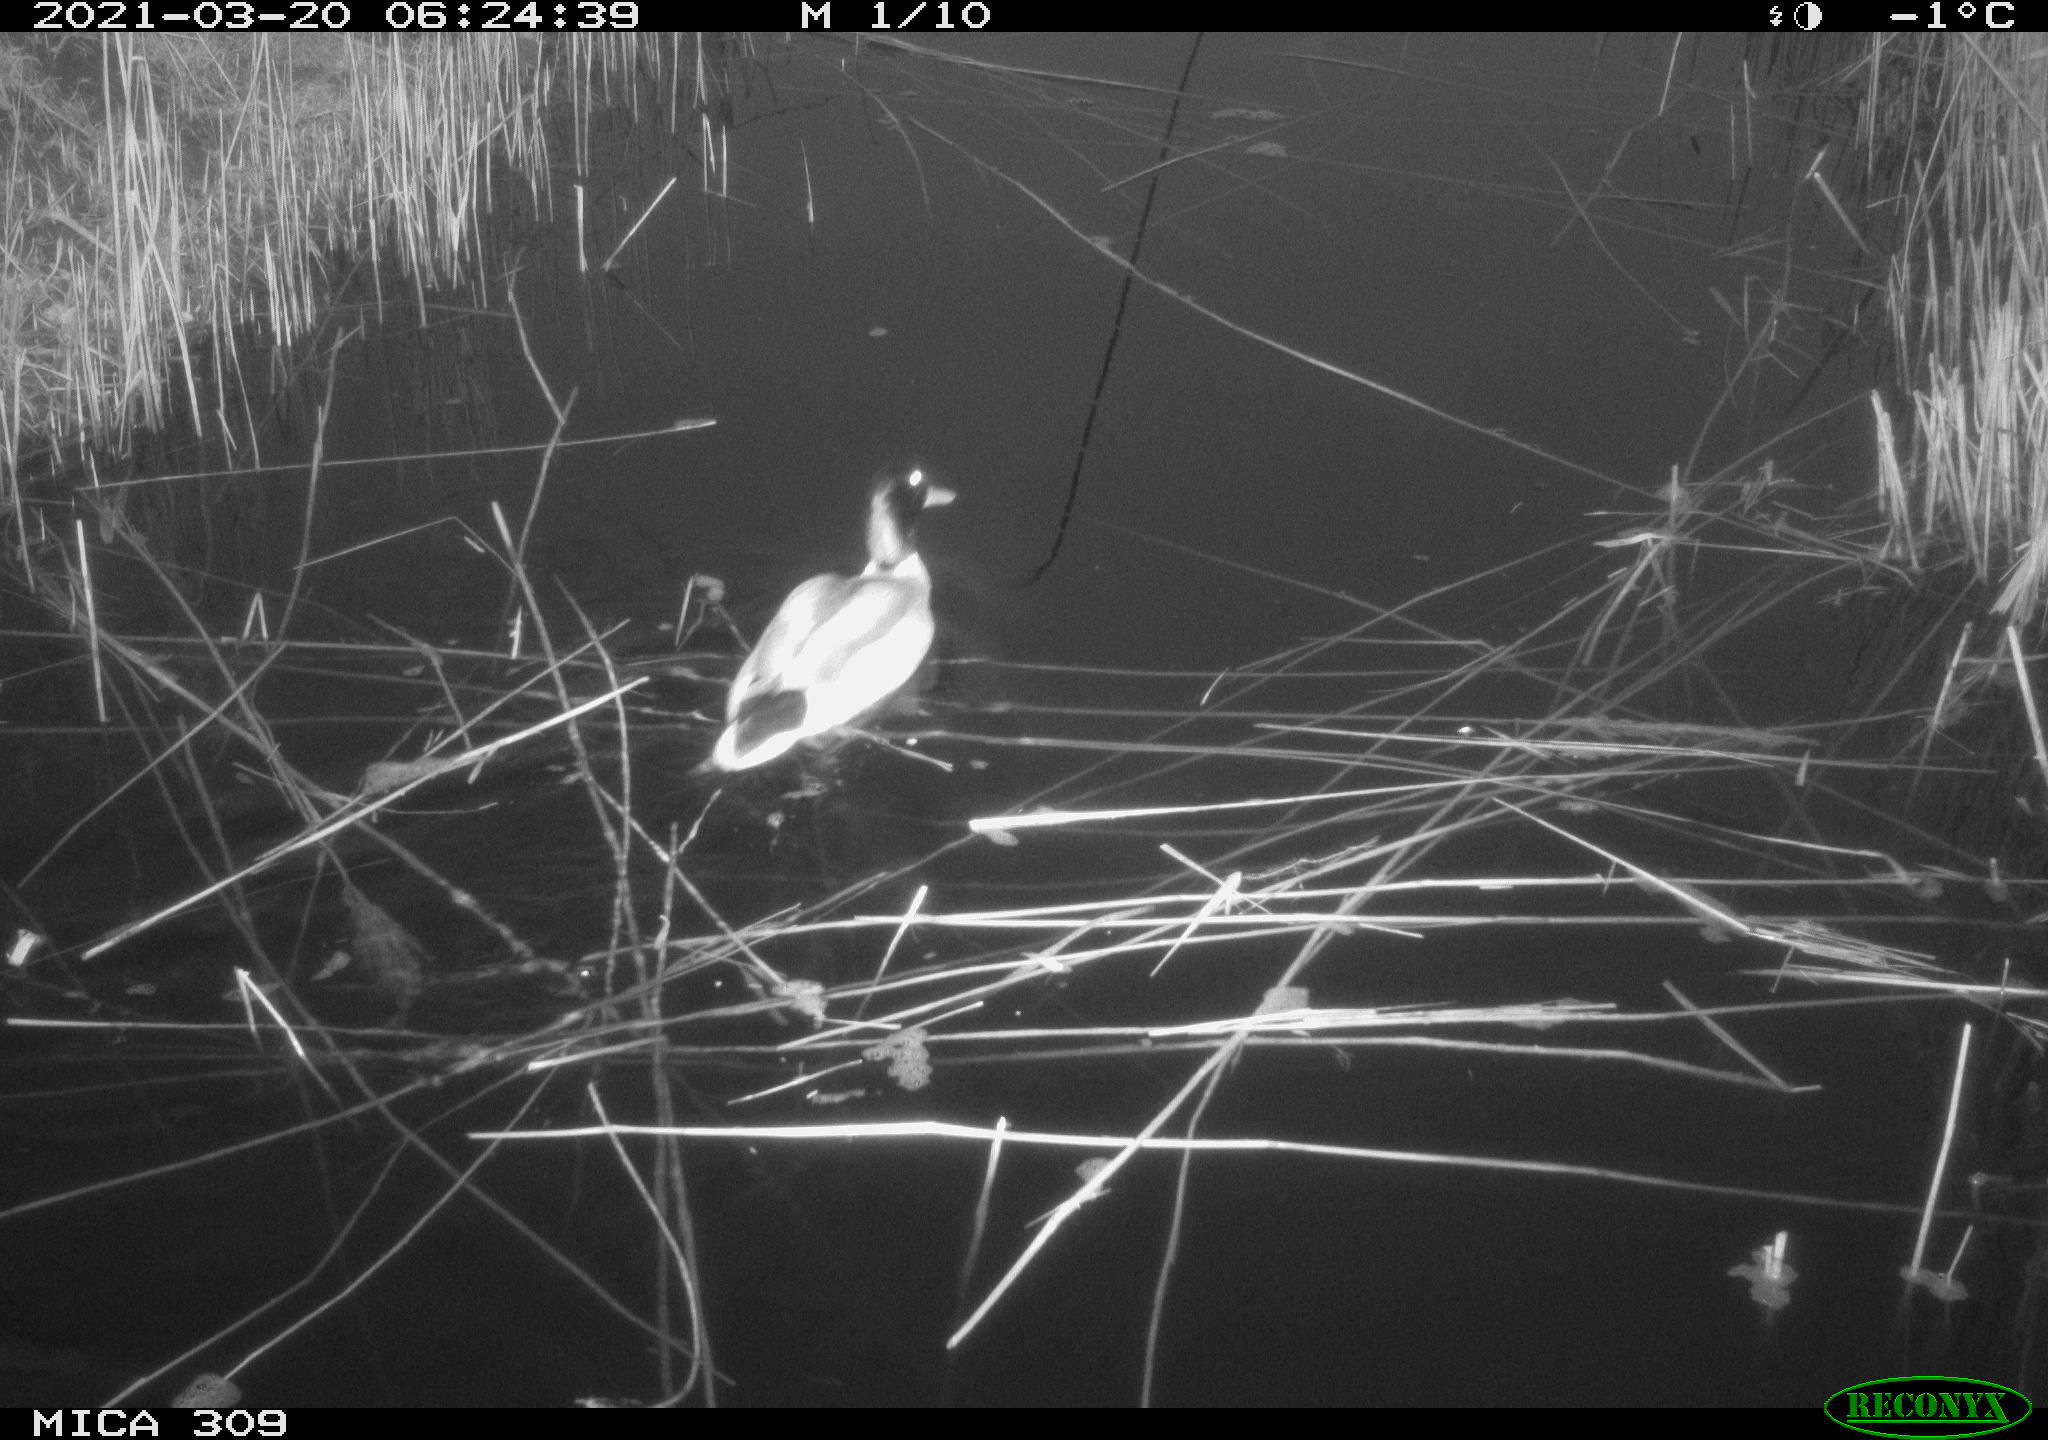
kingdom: Animalia
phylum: Chordata
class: Aves
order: Anseriformes
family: Anatidae
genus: Anas
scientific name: Anas platyrhynchos
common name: Mallard
